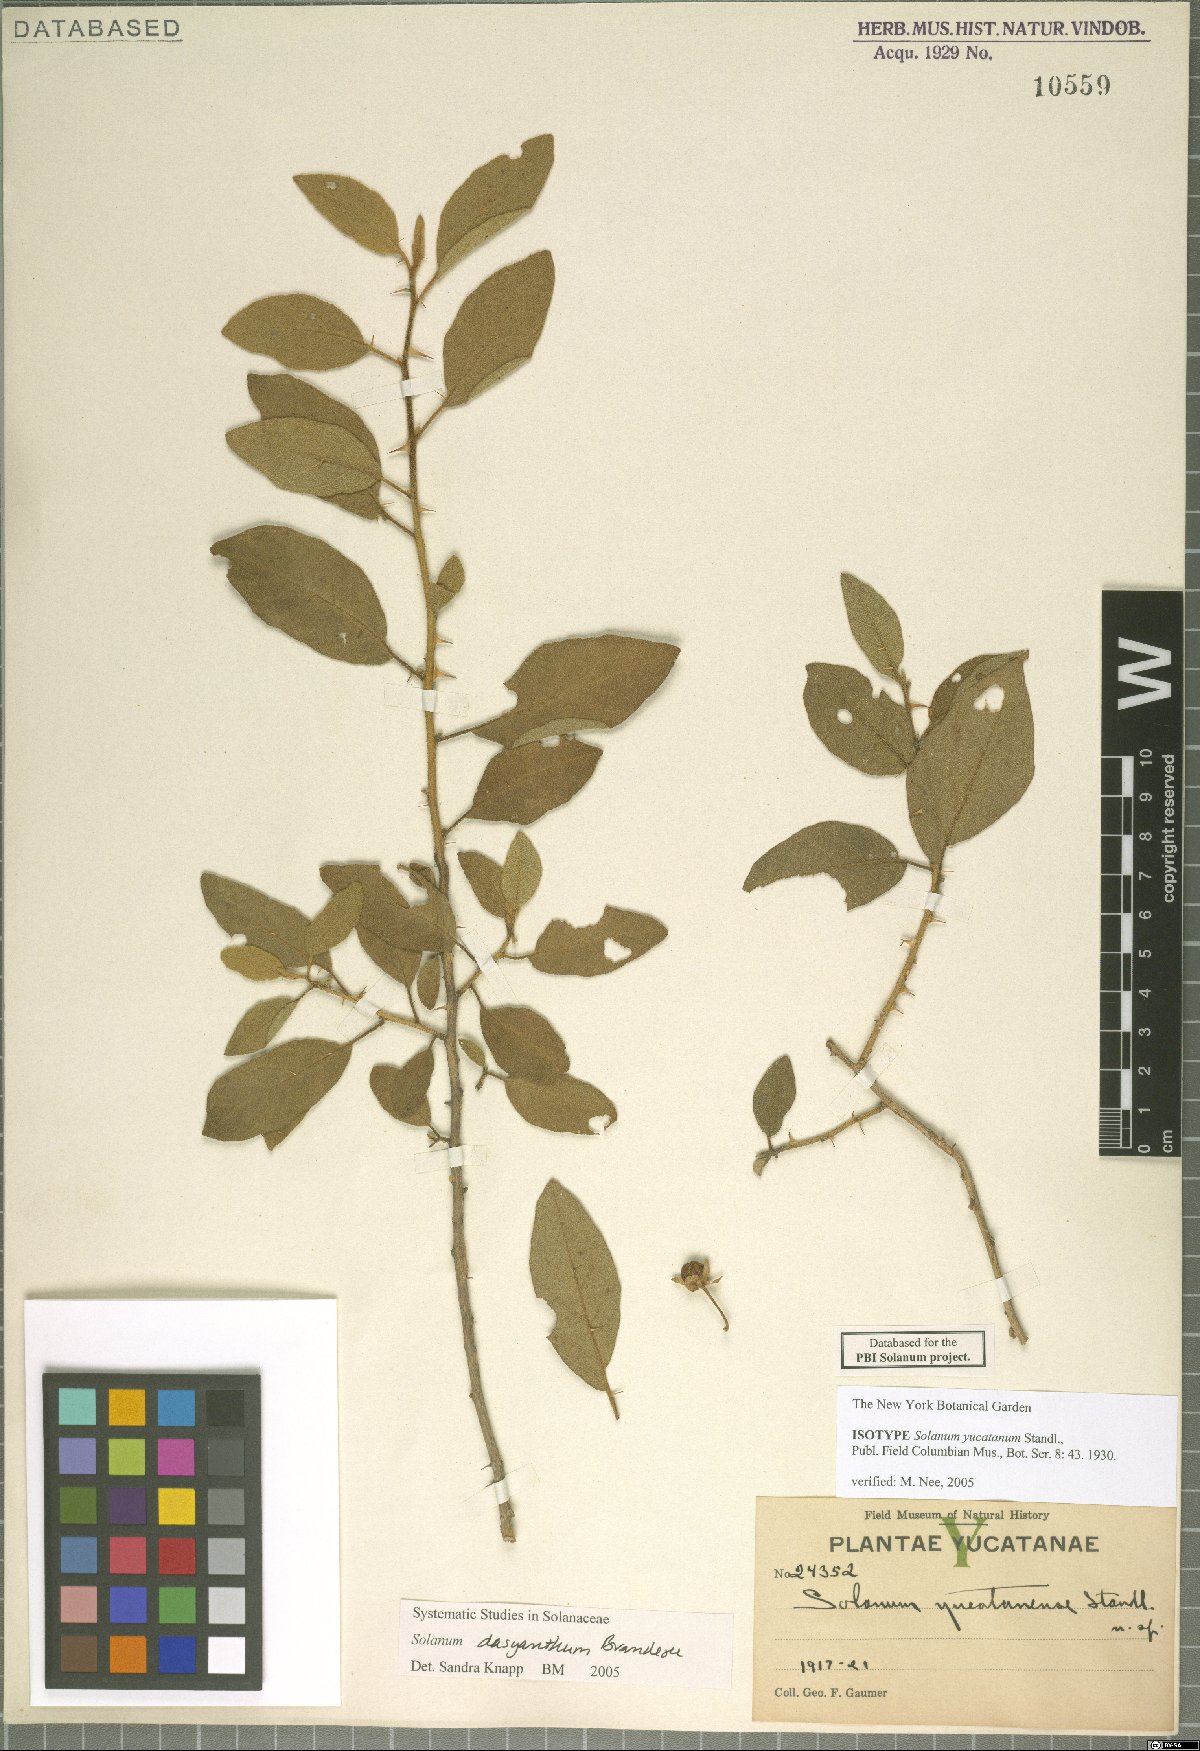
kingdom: Plantae
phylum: Tracheophyta
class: Magnoliopsida
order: Solanales
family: Solanaceae
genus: Solanum
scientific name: Solanum dasyanthum
